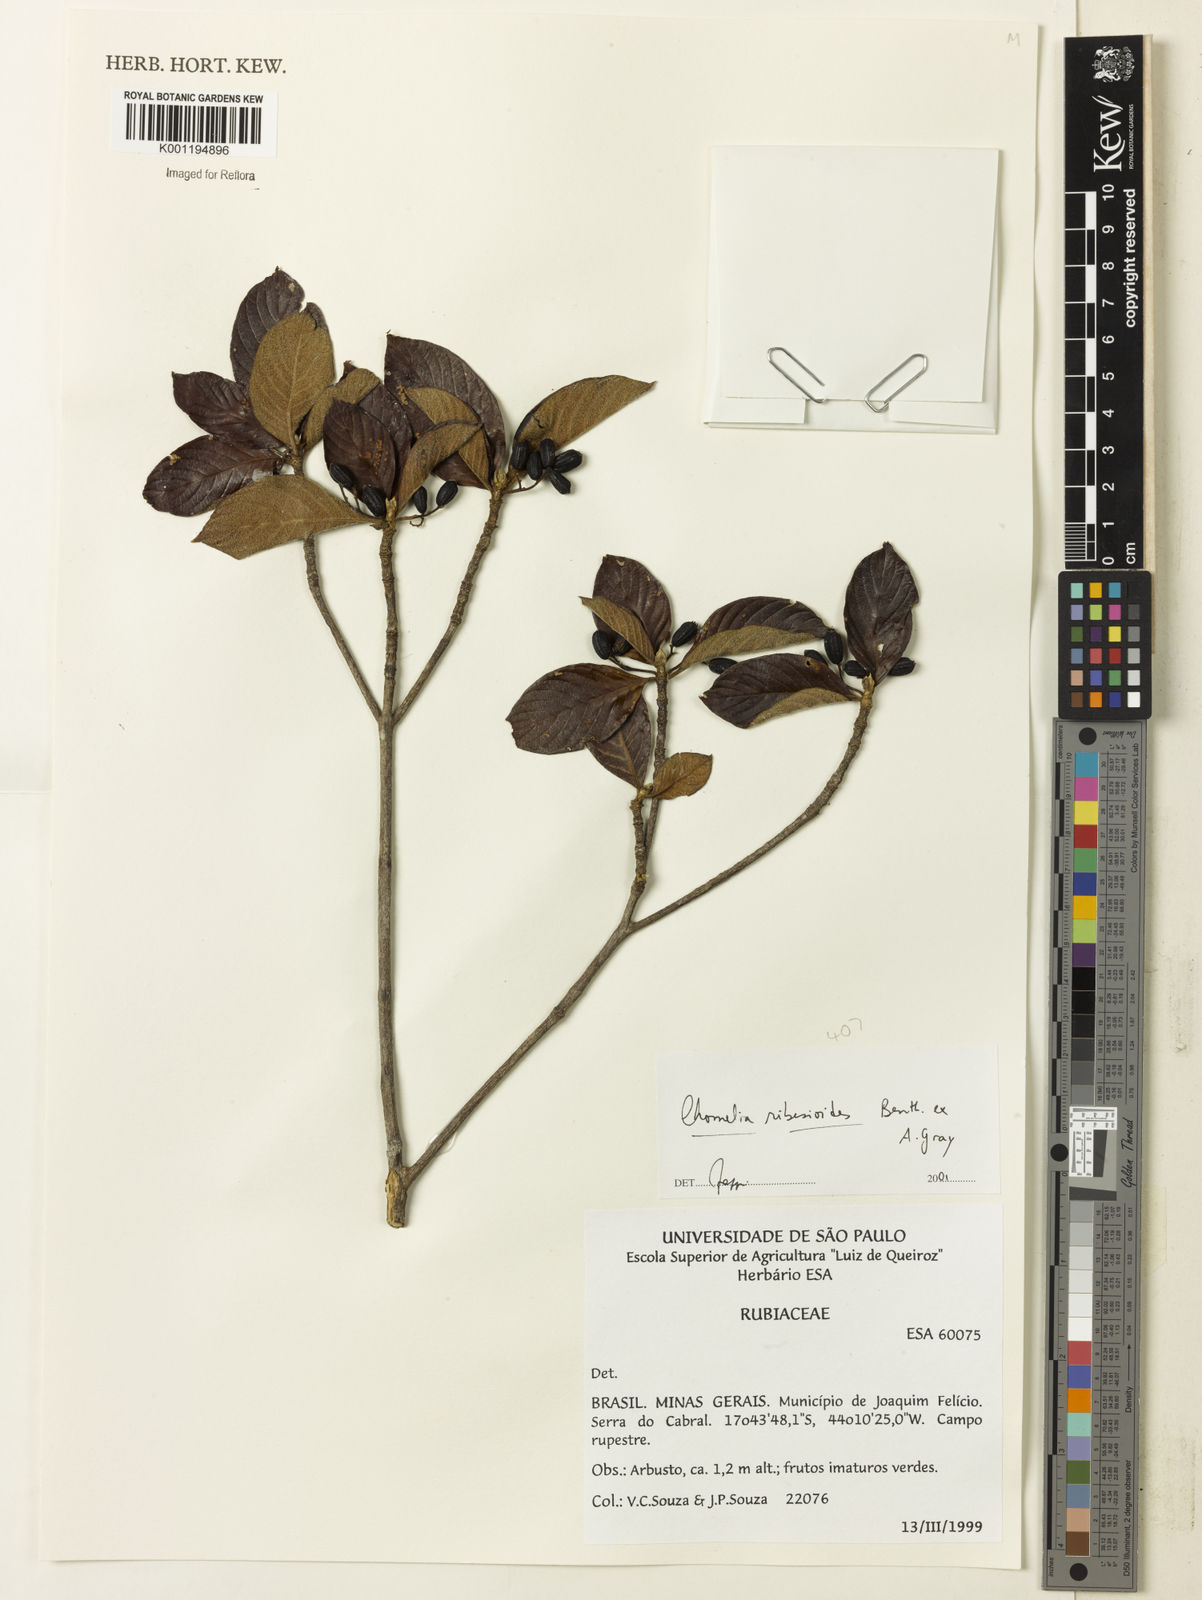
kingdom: Plantae
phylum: Tracheophyta
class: Magnoliopsida
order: Gentianales
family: Rubiaceae
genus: Chomelia
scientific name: Chomelia ribesioides
